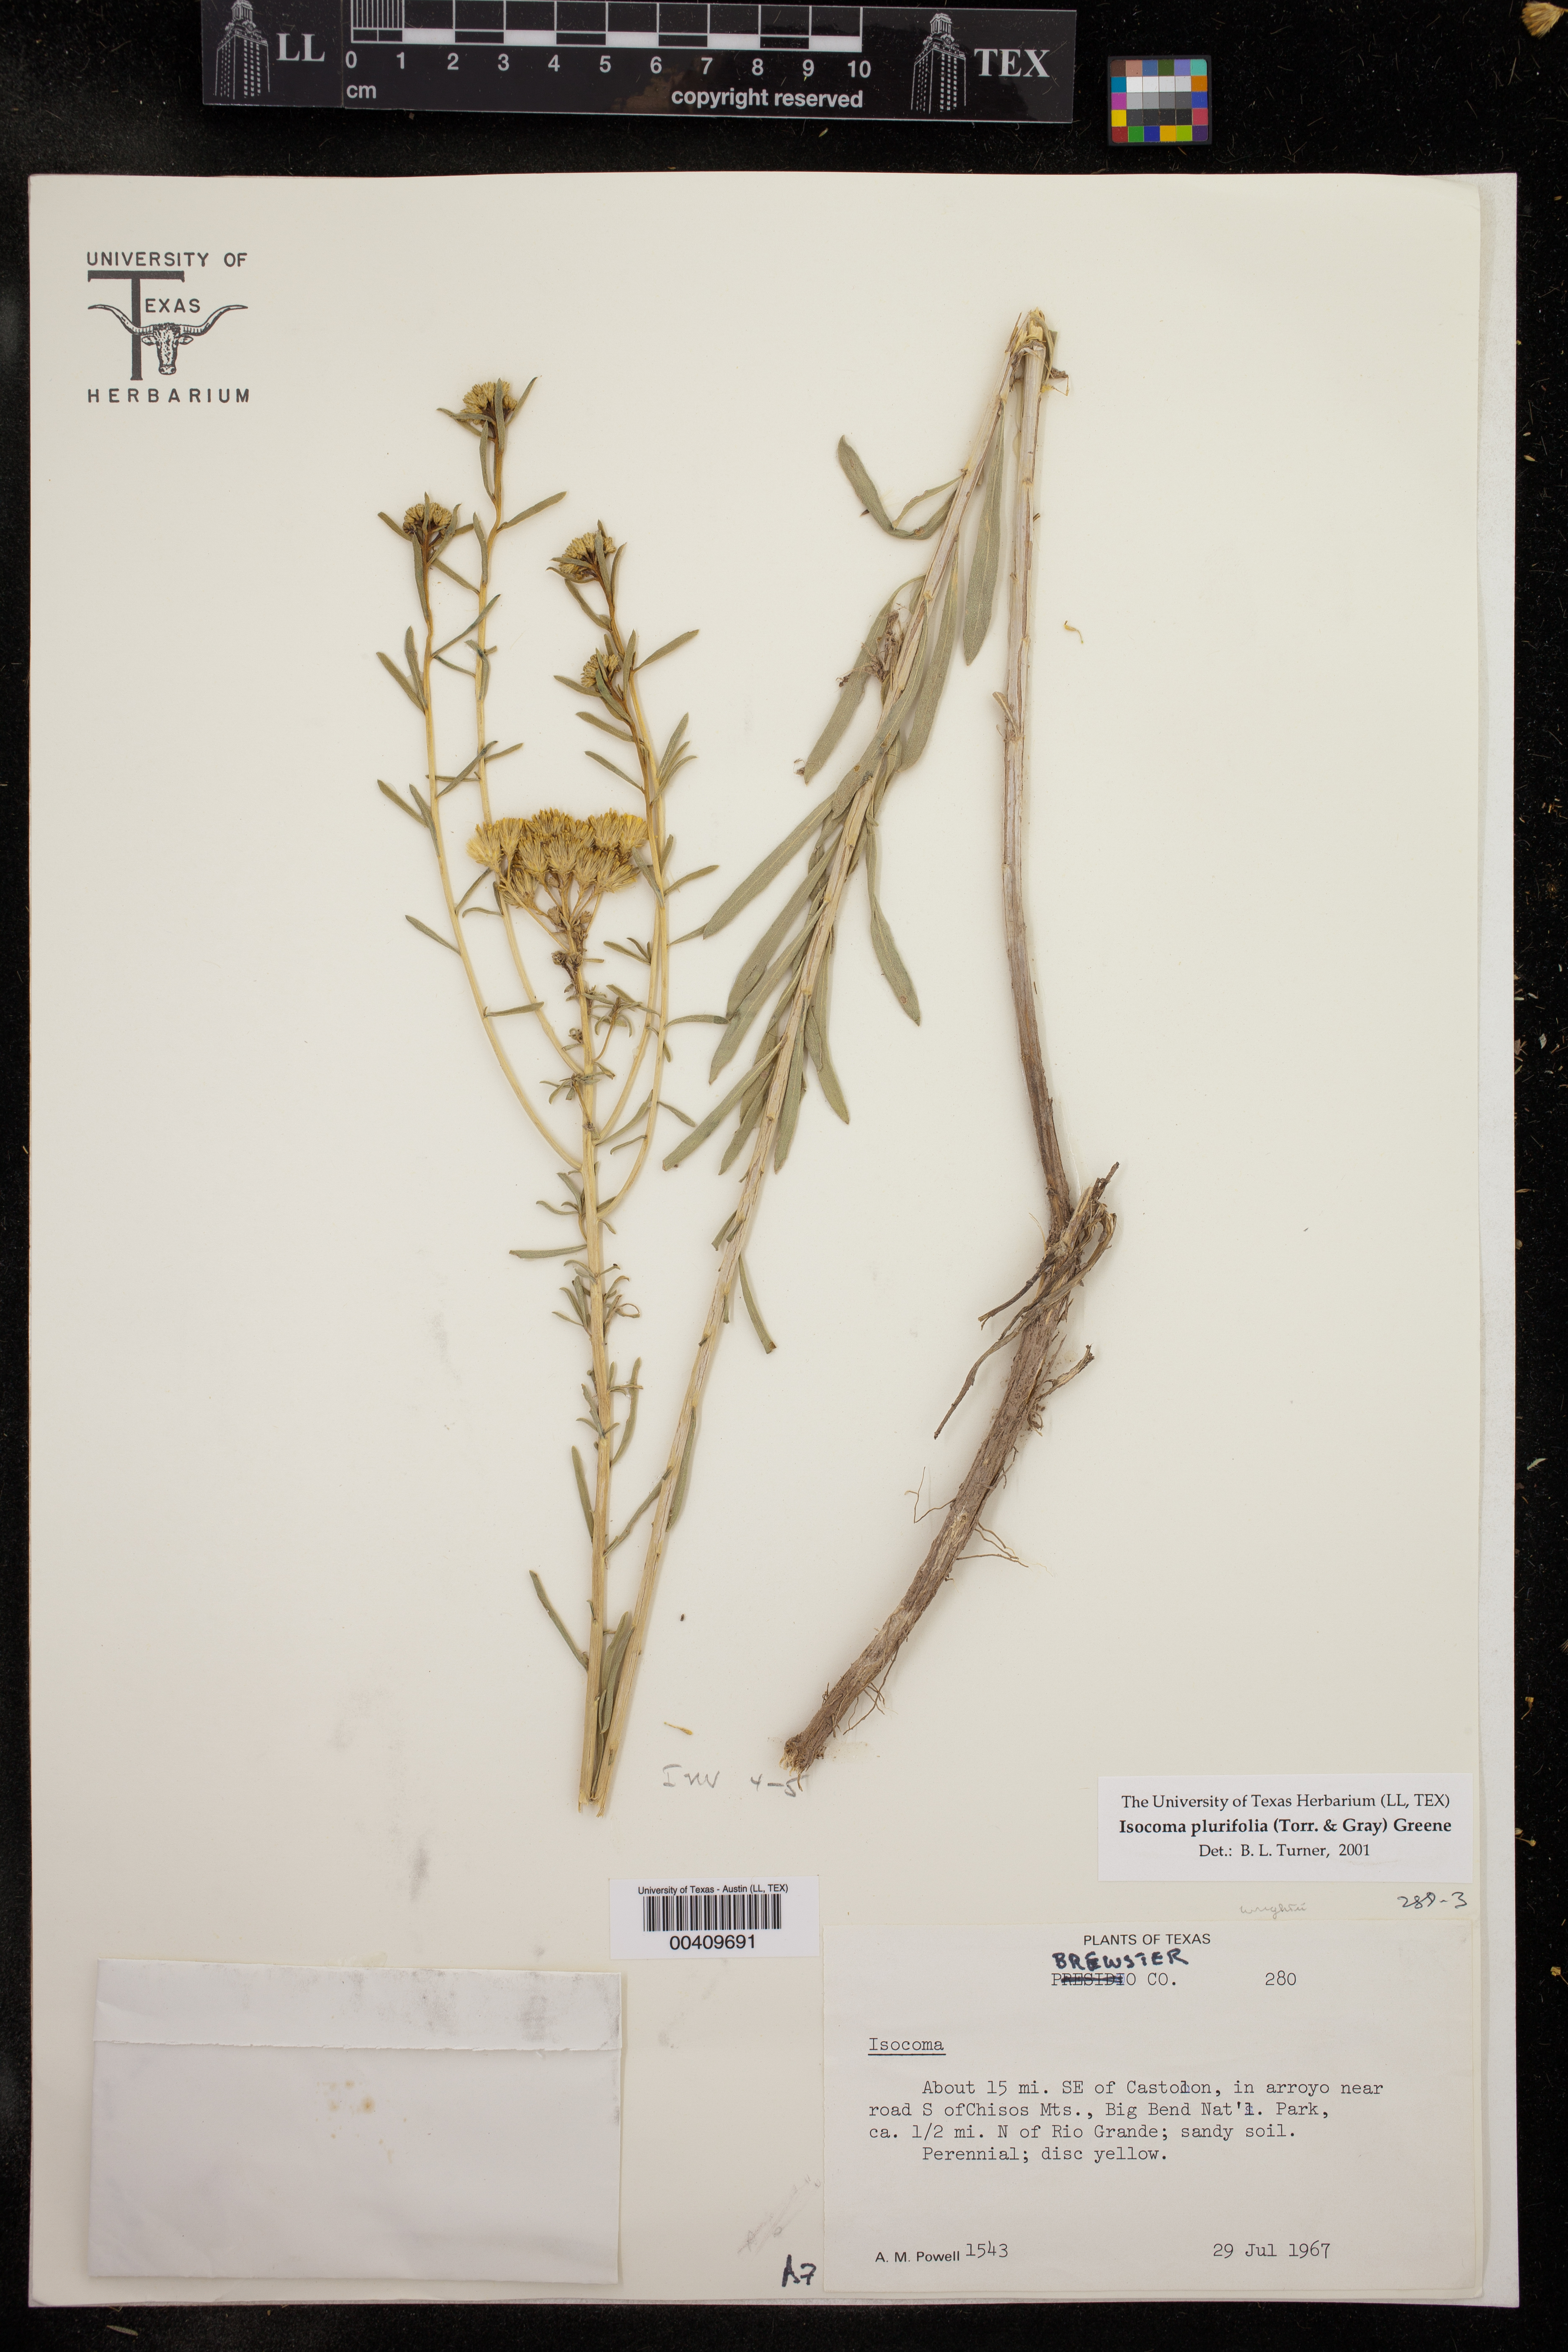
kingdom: Plantae
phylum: Tracheophyta
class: Magnoliopsida
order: Asterales
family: Asteraceae
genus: Isocoma
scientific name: Isocoma pluriflora
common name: Southern jimmyweed
